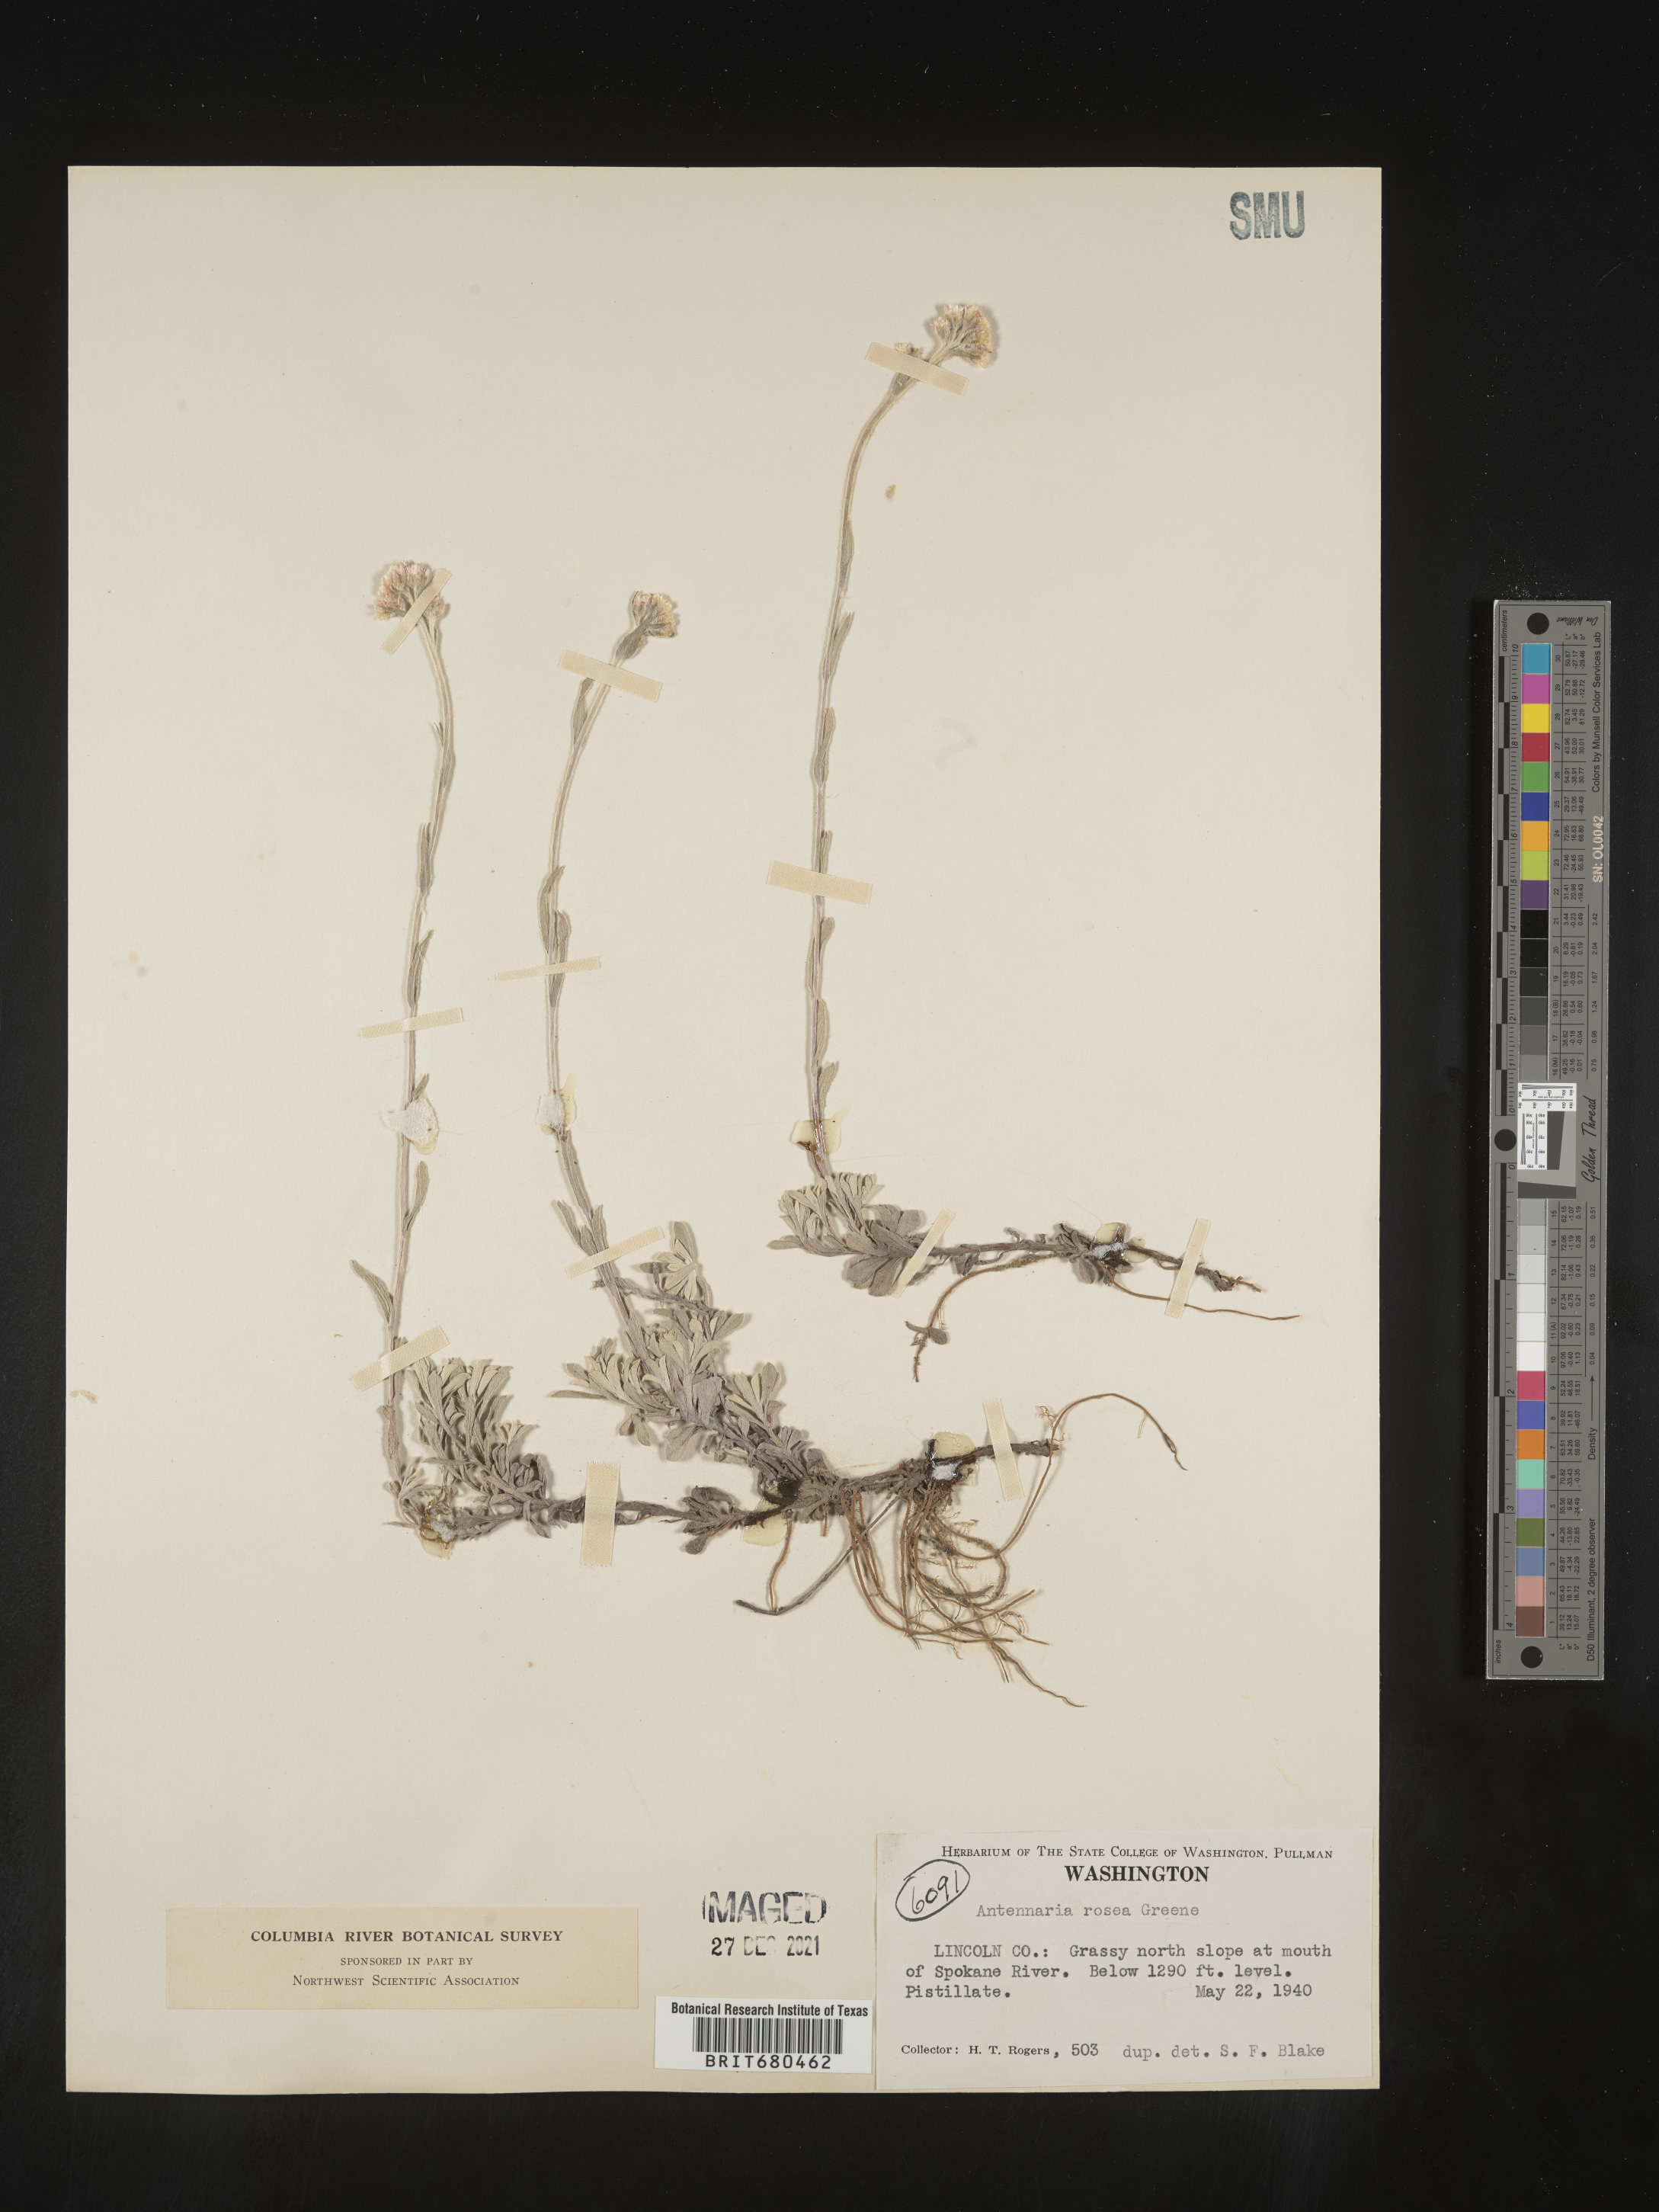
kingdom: Plantae
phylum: Tracheophyta
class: Magnoliopsida
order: Asterales
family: Asteraceae
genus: Antennaria
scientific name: Antennaria rosea
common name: Rosy pussytoes
